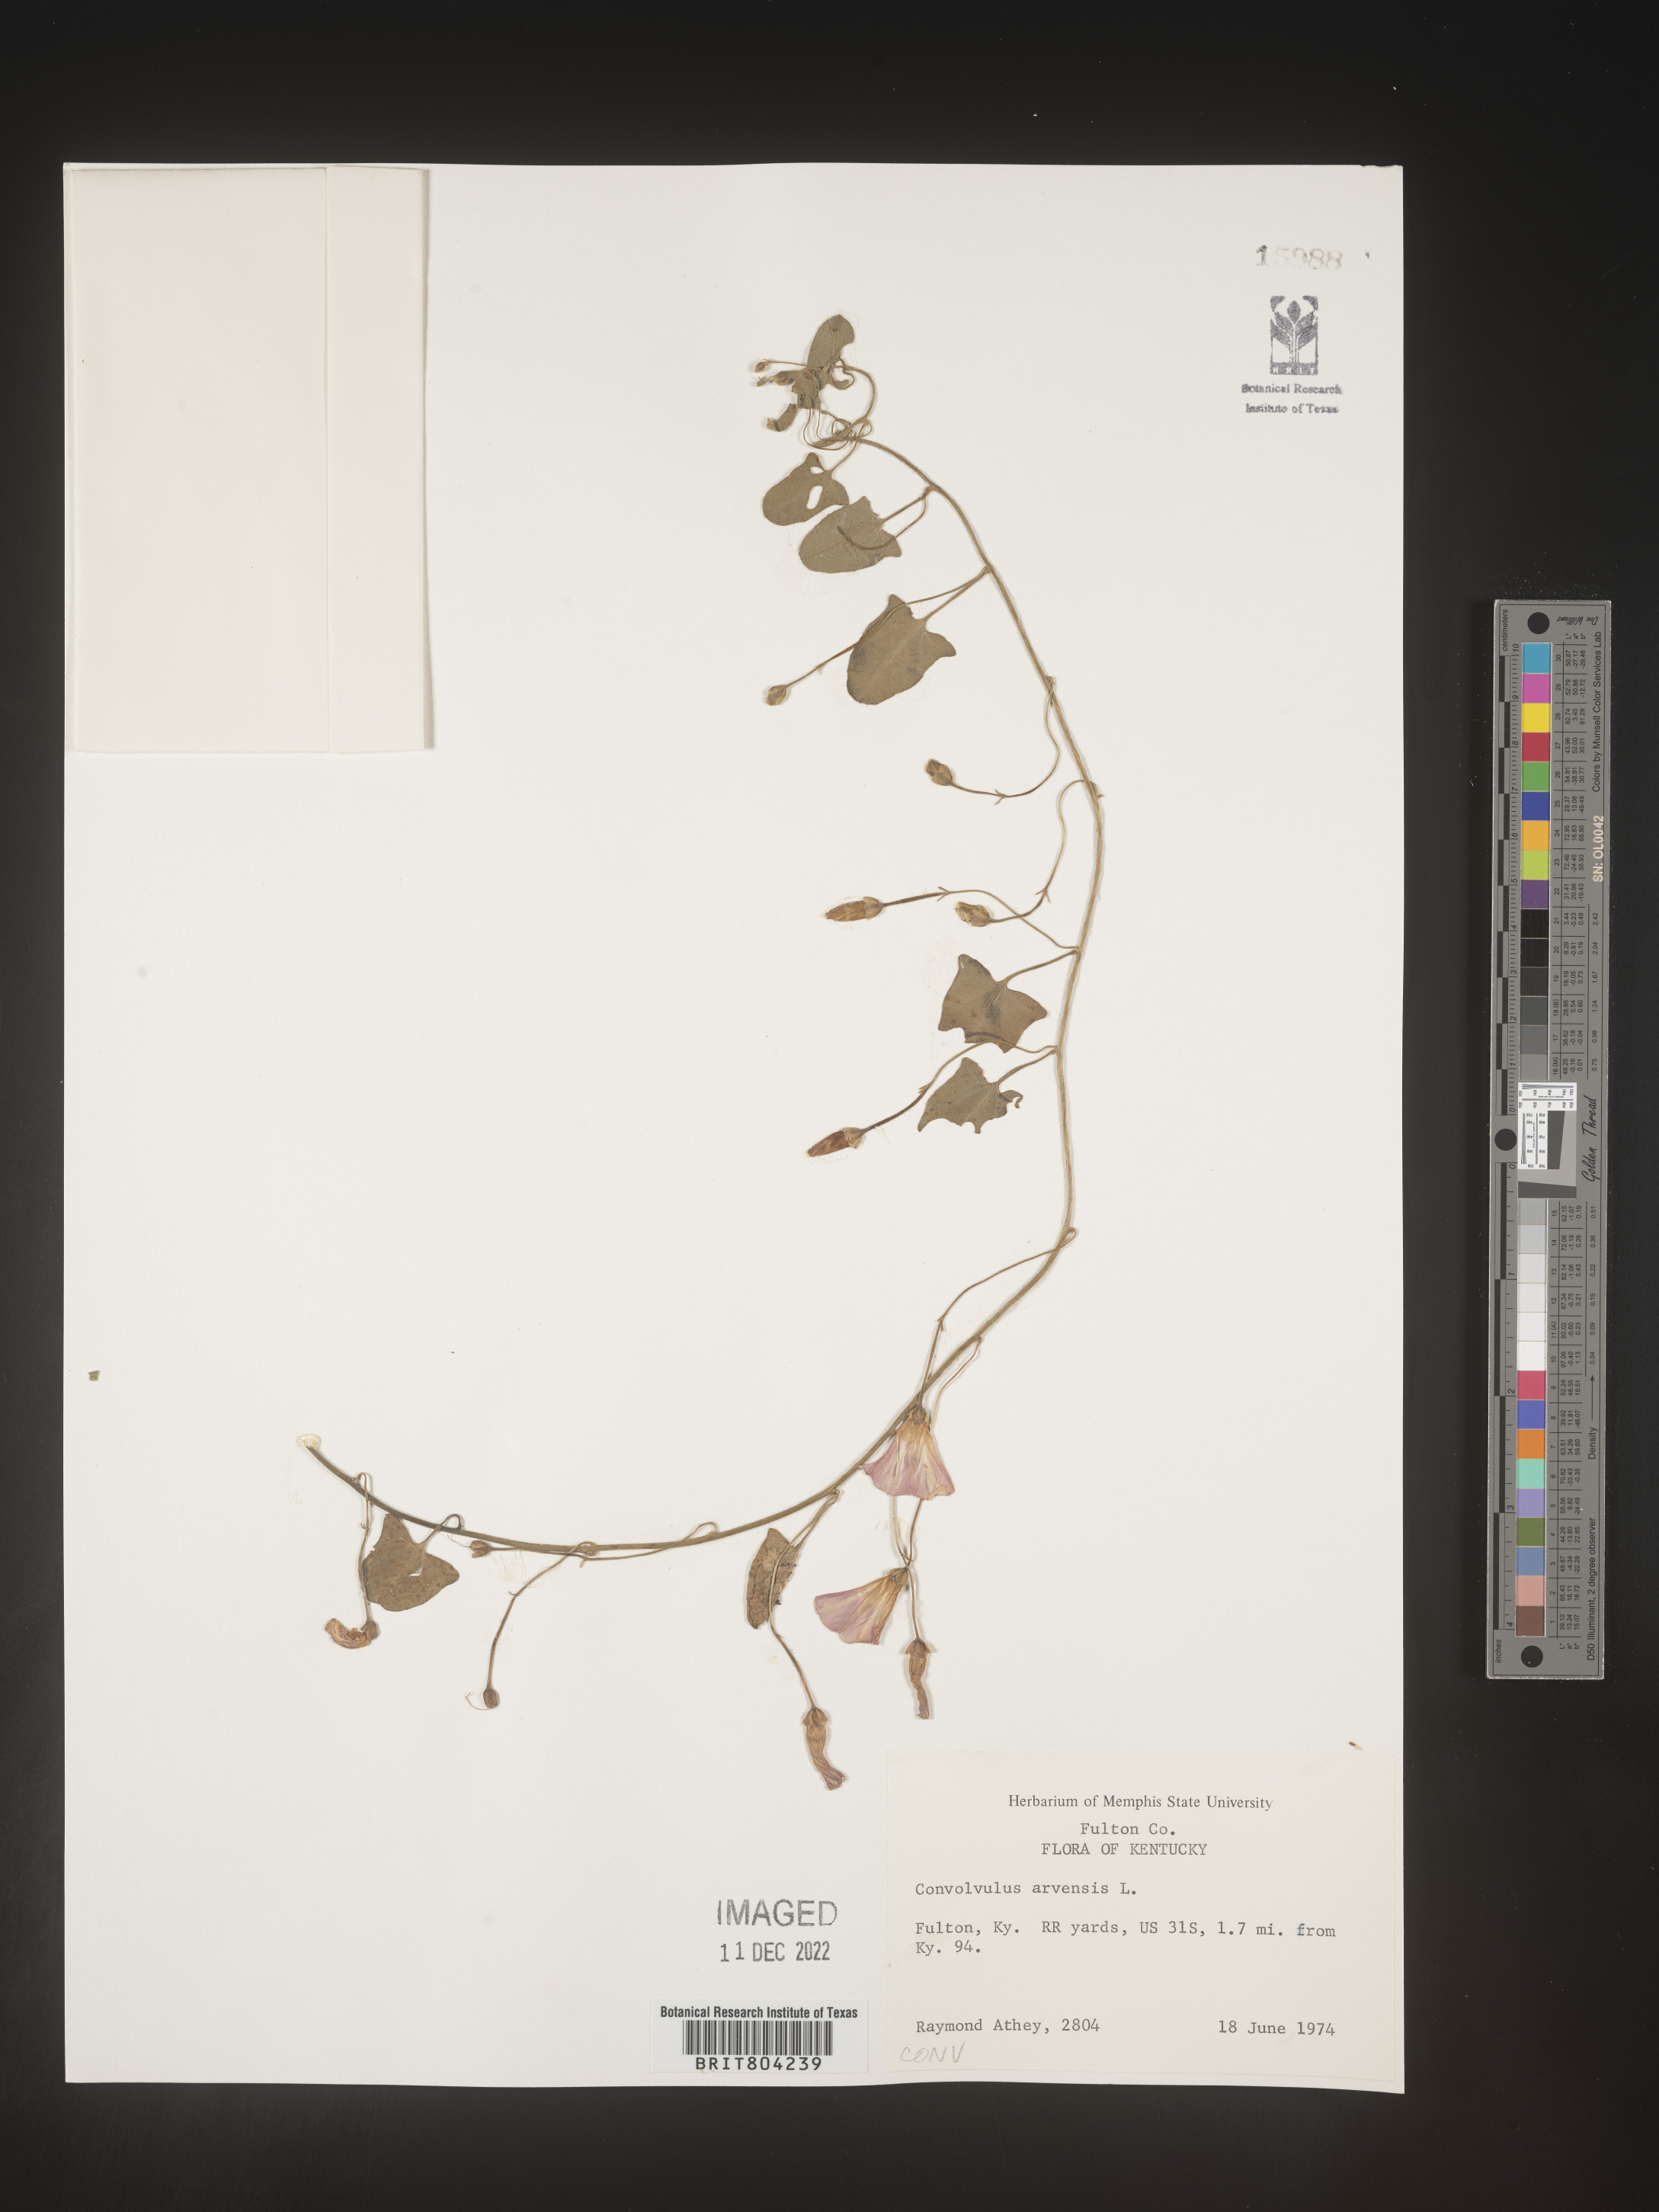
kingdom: Plantae
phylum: Tracheophyta
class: Magnoliopsida
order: Solanales
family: Convolvulaceae
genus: Convolvulus
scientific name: Convolvulus arvensis
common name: Field bindweed
